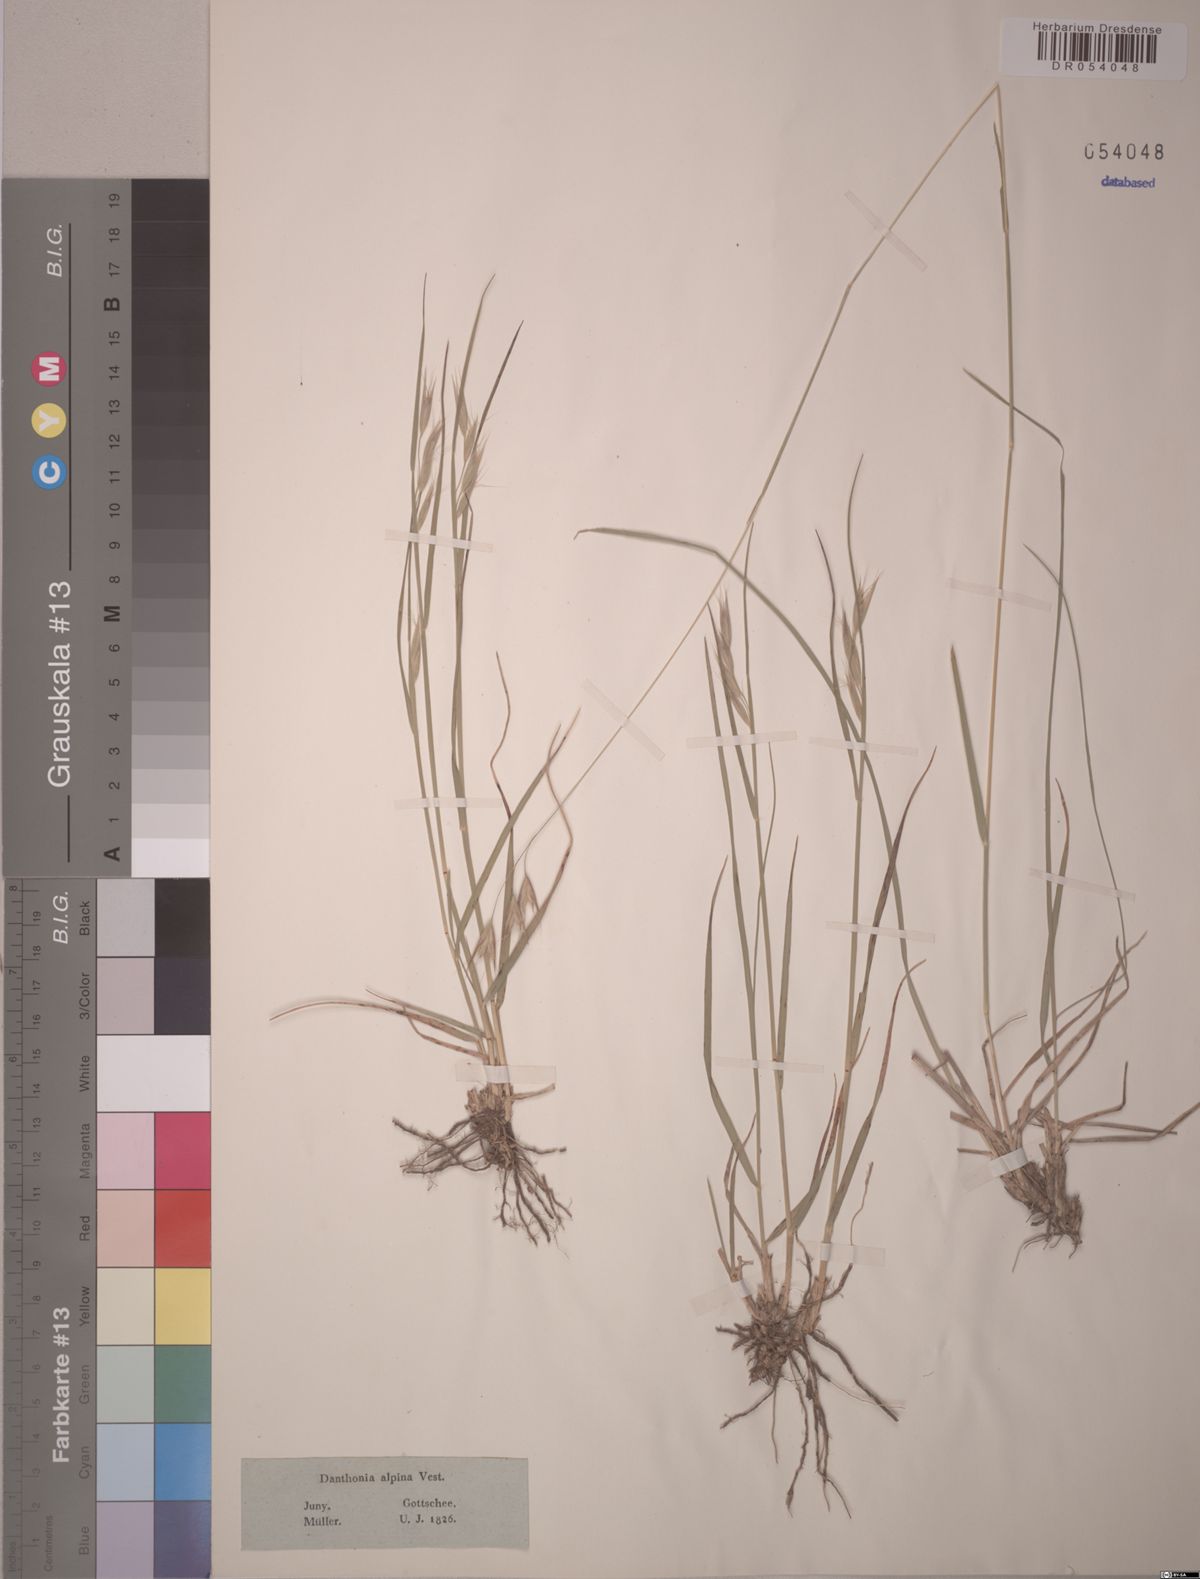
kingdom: Plantae
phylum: Tracheophyta
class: Liliopsida
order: Poales
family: Poaceae
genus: Danthonia
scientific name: Danthonia alpina
